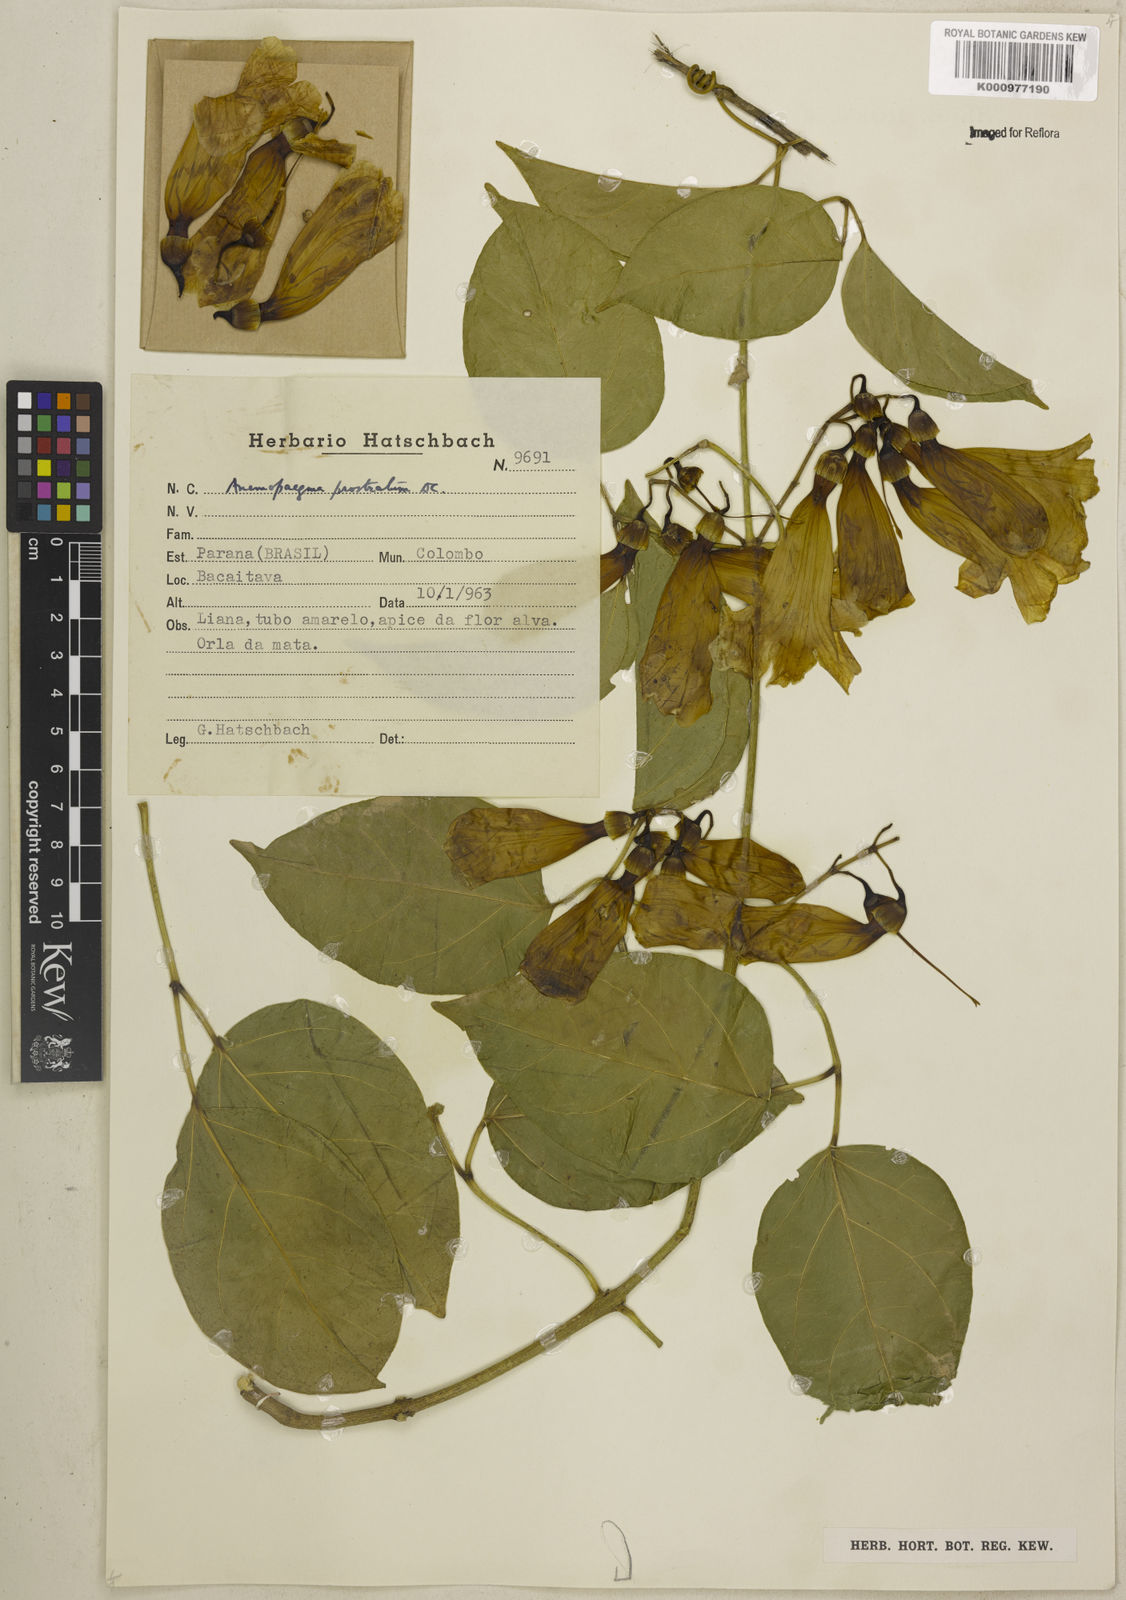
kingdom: Plantae
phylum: Tracheophyta
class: Magnoliopsida
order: Lamiales
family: Bignoniaceae
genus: Anemopaegma
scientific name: Anemopaegma prostratum
